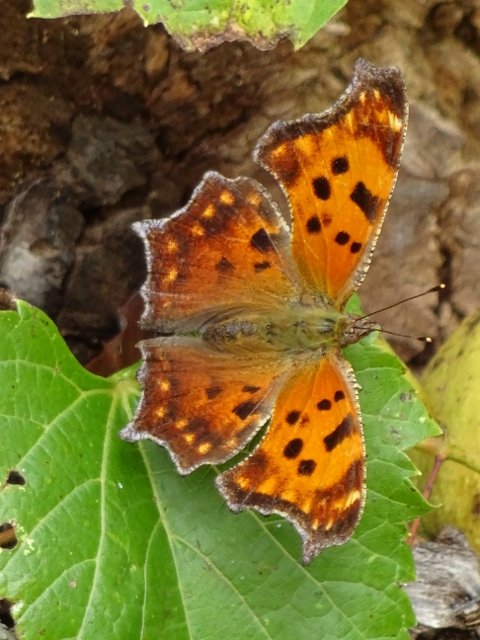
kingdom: Animalia
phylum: Arthropoda
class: Insecta
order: Lepidoptera
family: Nymphalidae
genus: Polygonia
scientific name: Polygonia comma
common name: Eastern Comma
